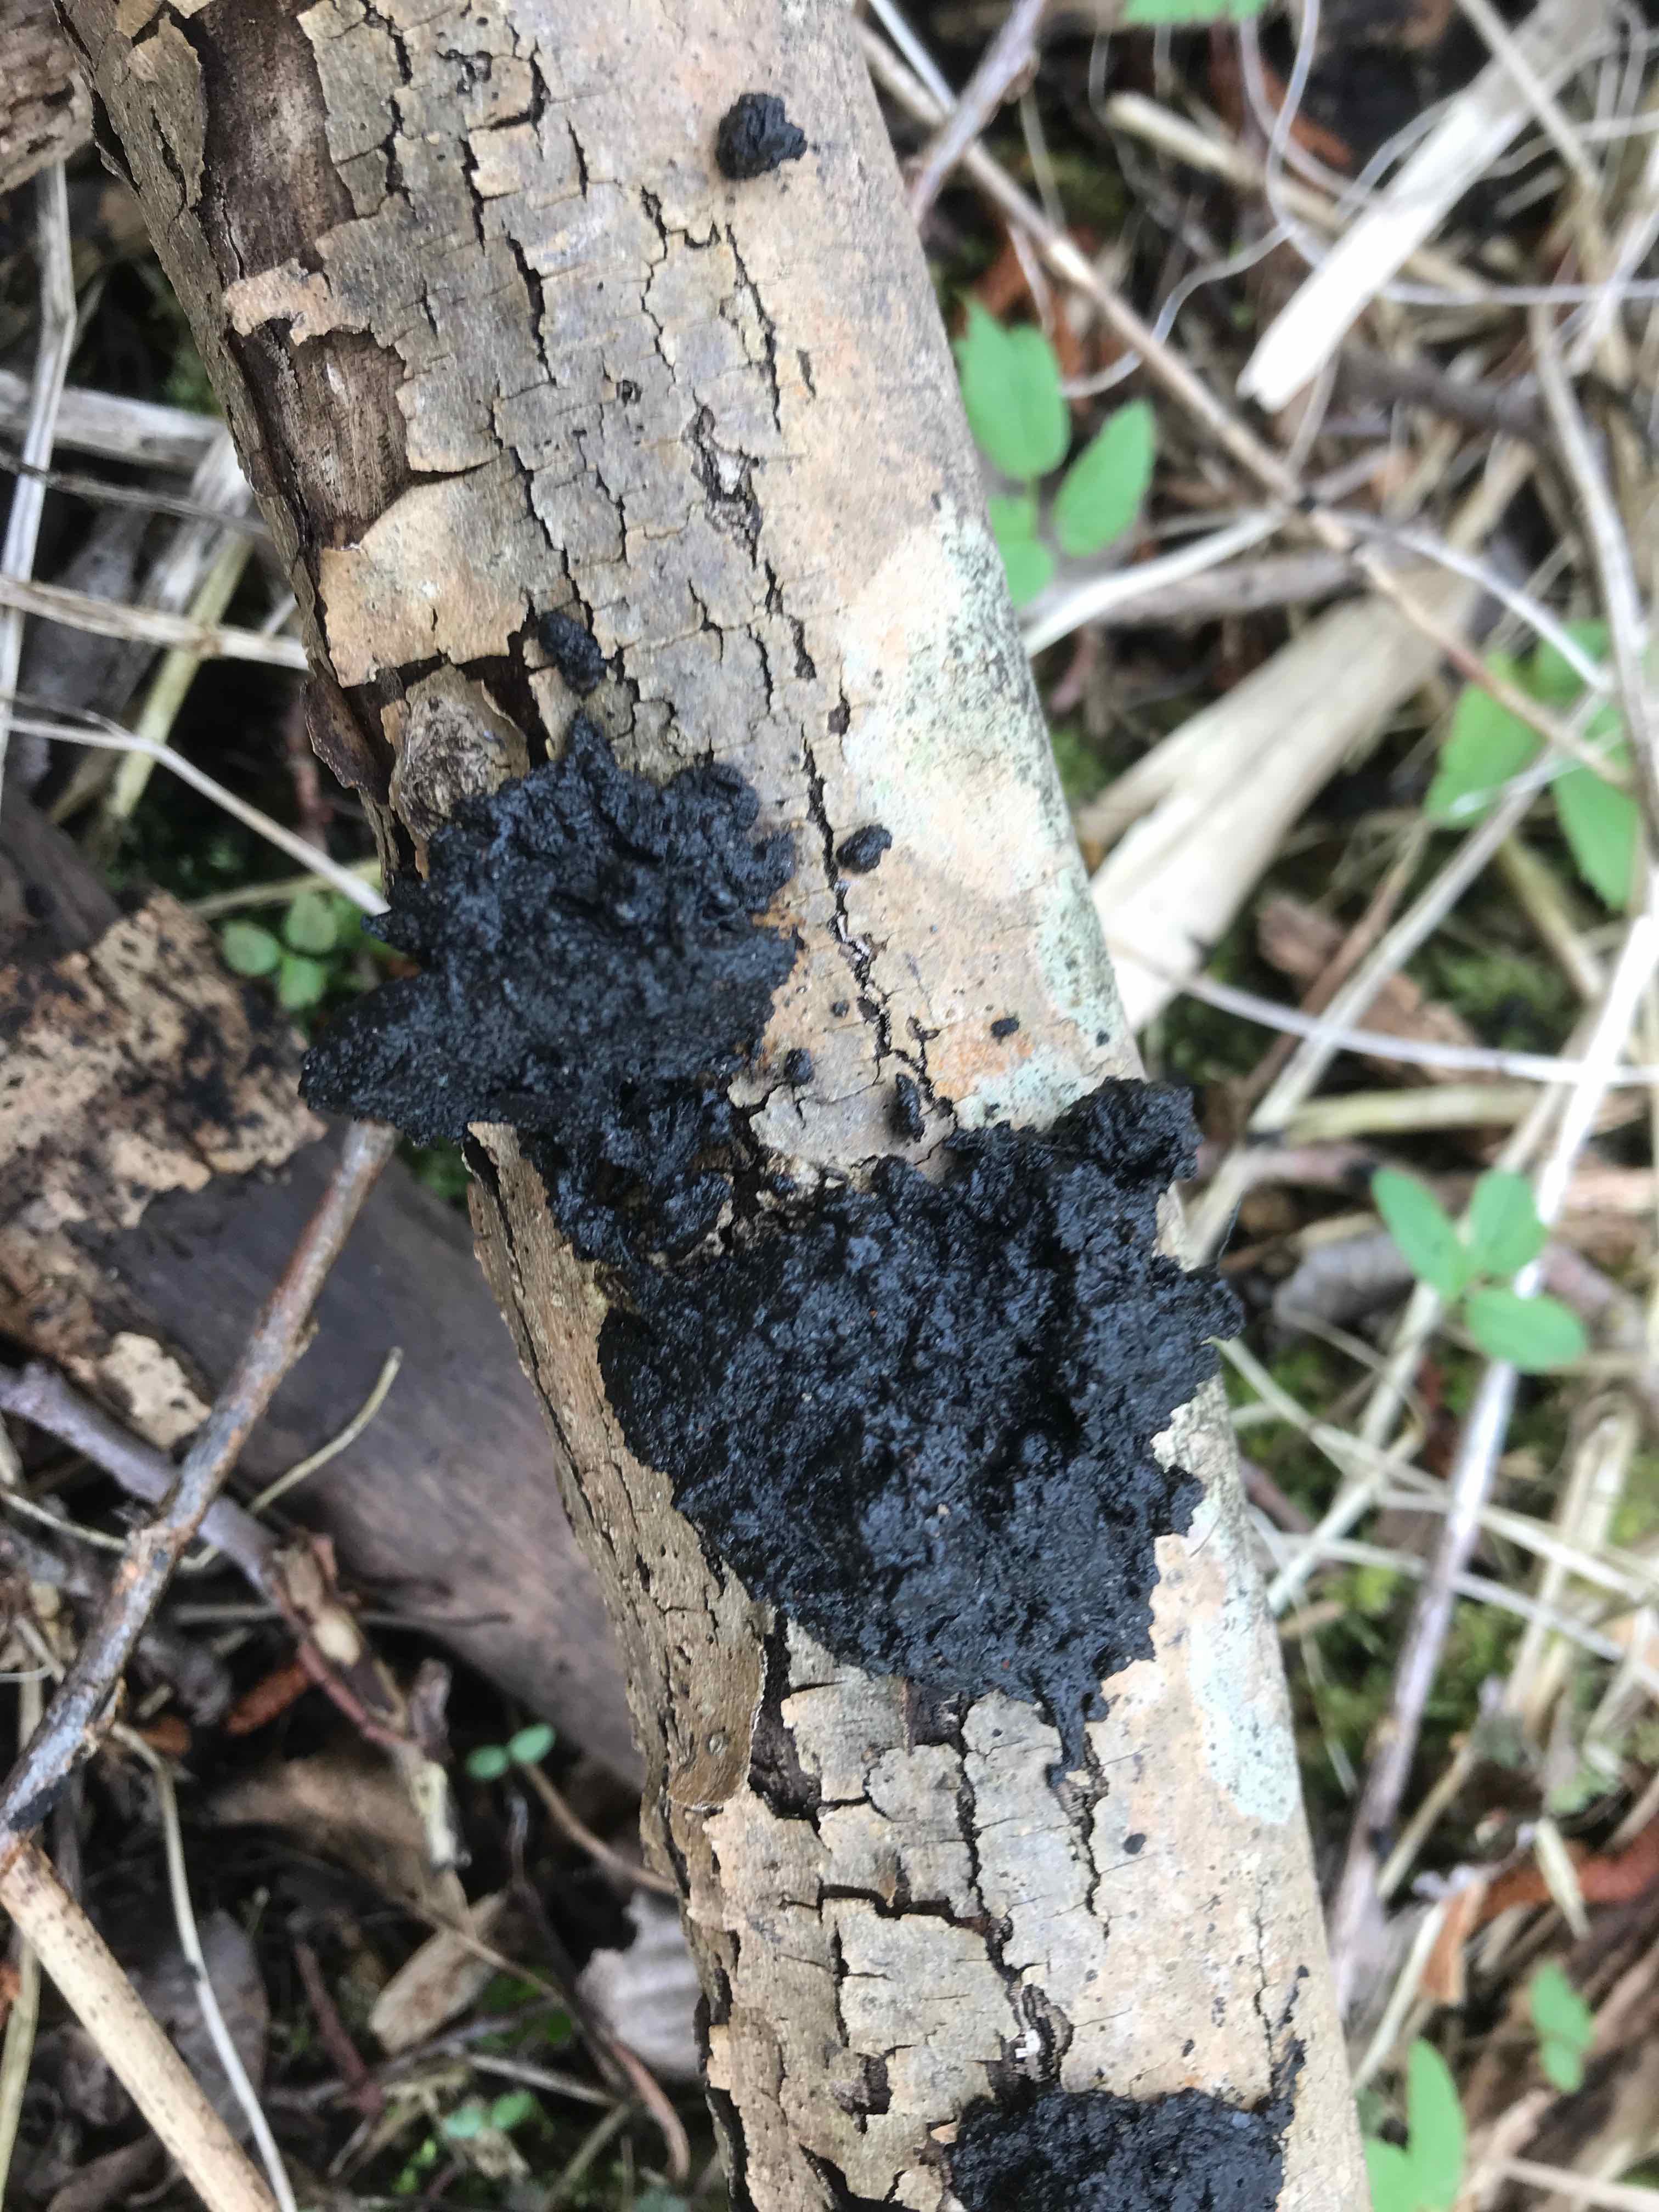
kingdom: Fungi
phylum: Basidiomycota
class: Agaricomycetes
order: Auriculariales
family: Auriculariaceae
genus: Exidia
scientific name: Exidia nigricans
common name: almindelig bævretop
